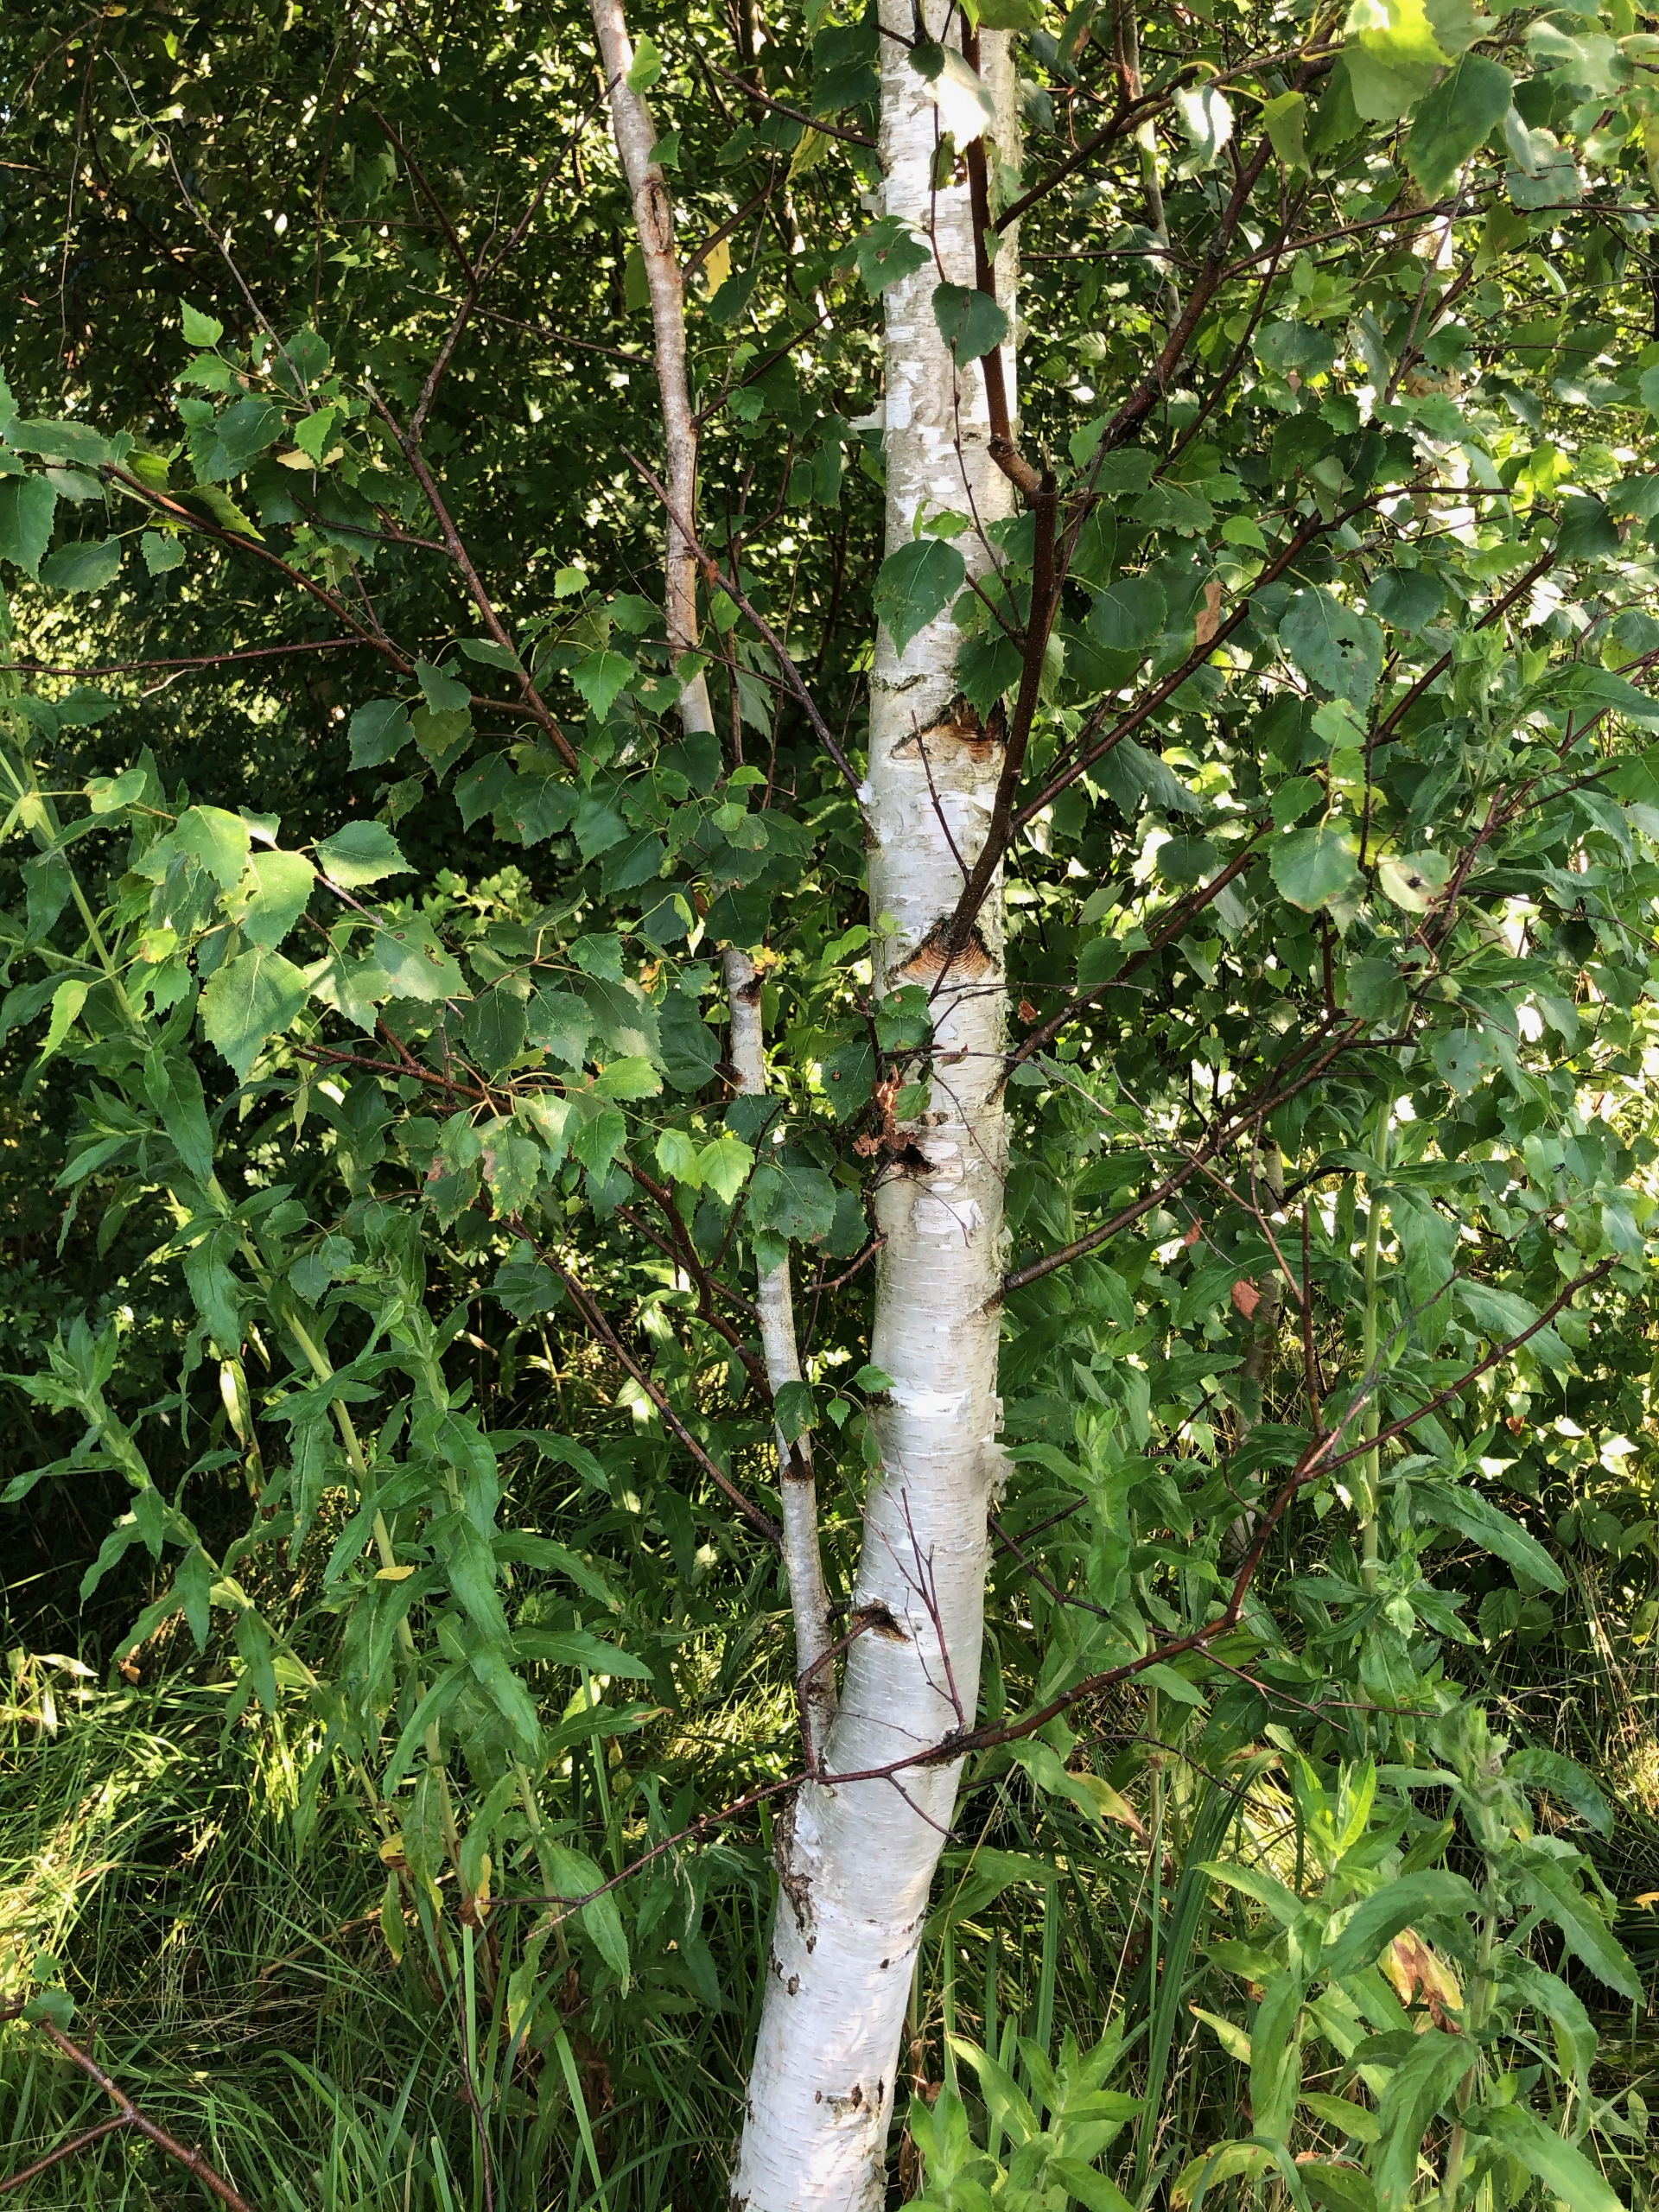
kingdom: Plantae
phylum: Tracheophyta
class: Magnoliopsida
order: Fagales
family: Betulaceae
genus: Betula
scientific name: Betula pendula
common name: Vorte-birk
